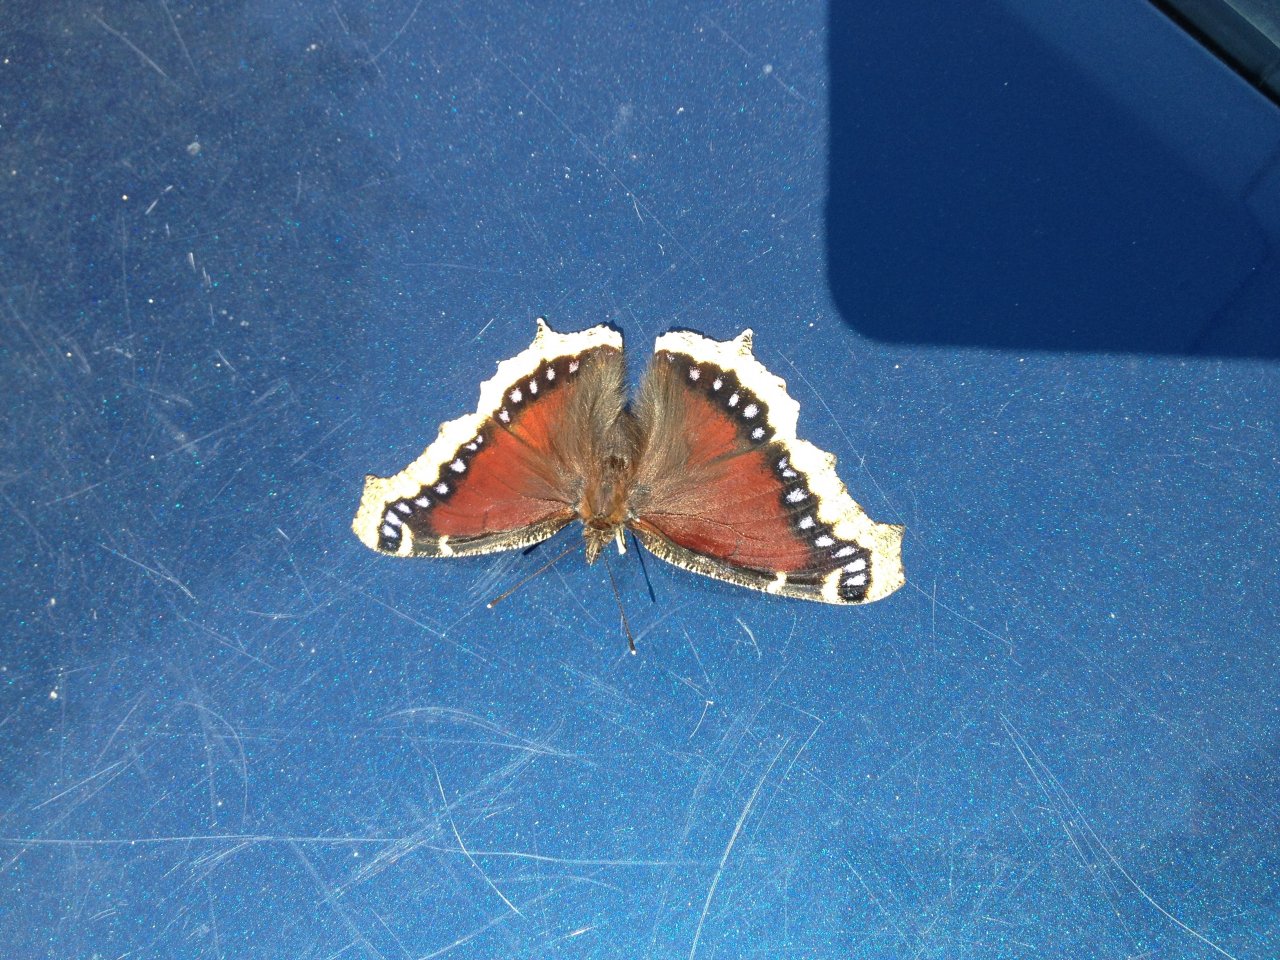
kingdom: Animalia
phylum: Arthropoda
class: Insecta
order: Lepidoptera
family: Nymphalidae
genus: Nymphalis
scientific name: Nymphalis antiopa
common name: Mourning Cloak
